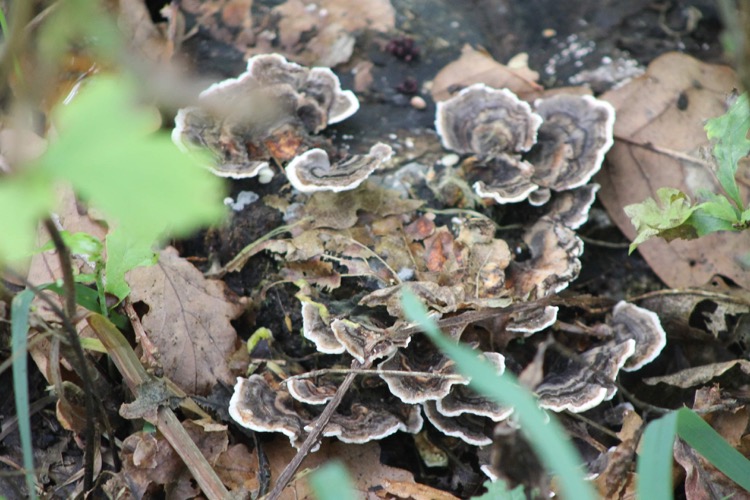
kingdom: Fungi
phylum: Basidiomycota
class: Agaricomycetes
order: Polyporales
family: Polyporaceae
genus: Trametes
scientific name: Trametes versicolor
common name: broget læderporesvamp
